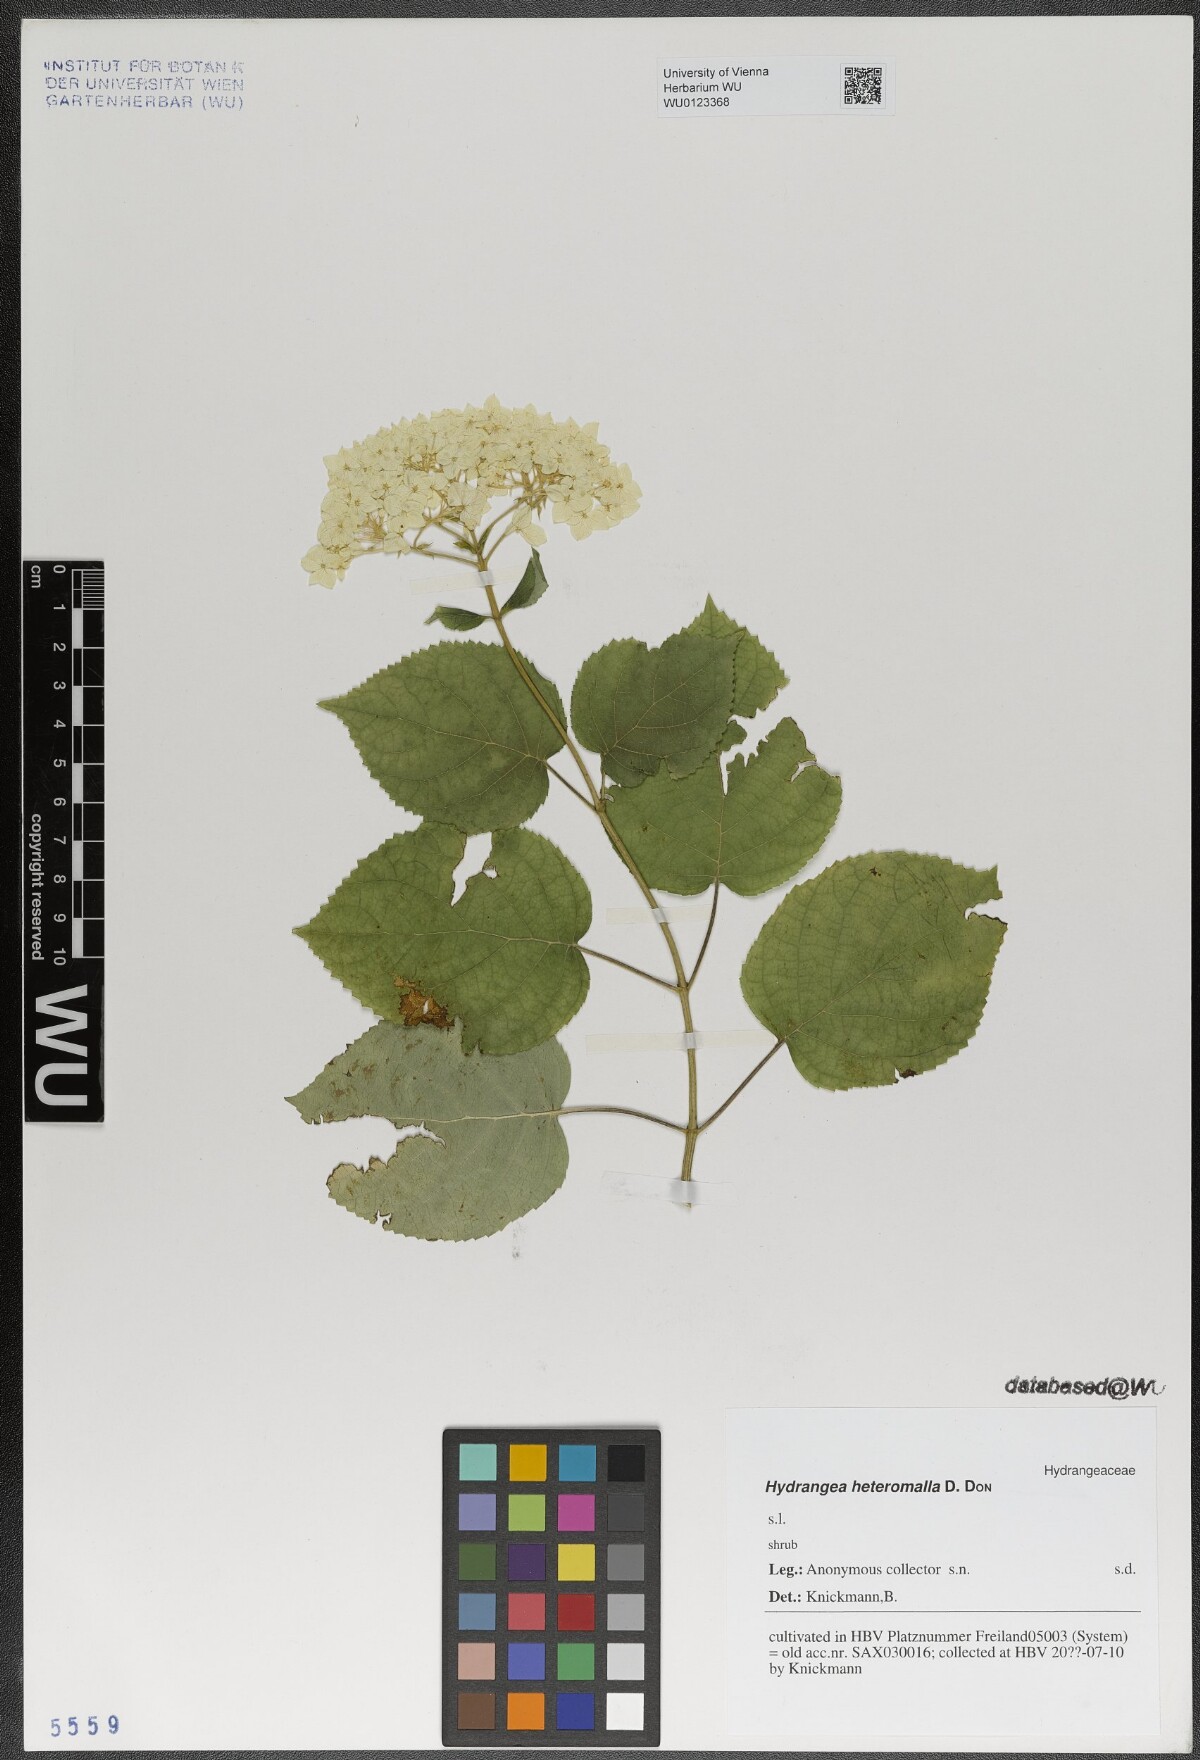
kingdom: Plantae
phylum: Tracheophyta
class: Magnoliopsida
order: Cornales
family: Hydrangeaceae
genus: Hydrangea
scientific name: Hydrangea heteromalla
